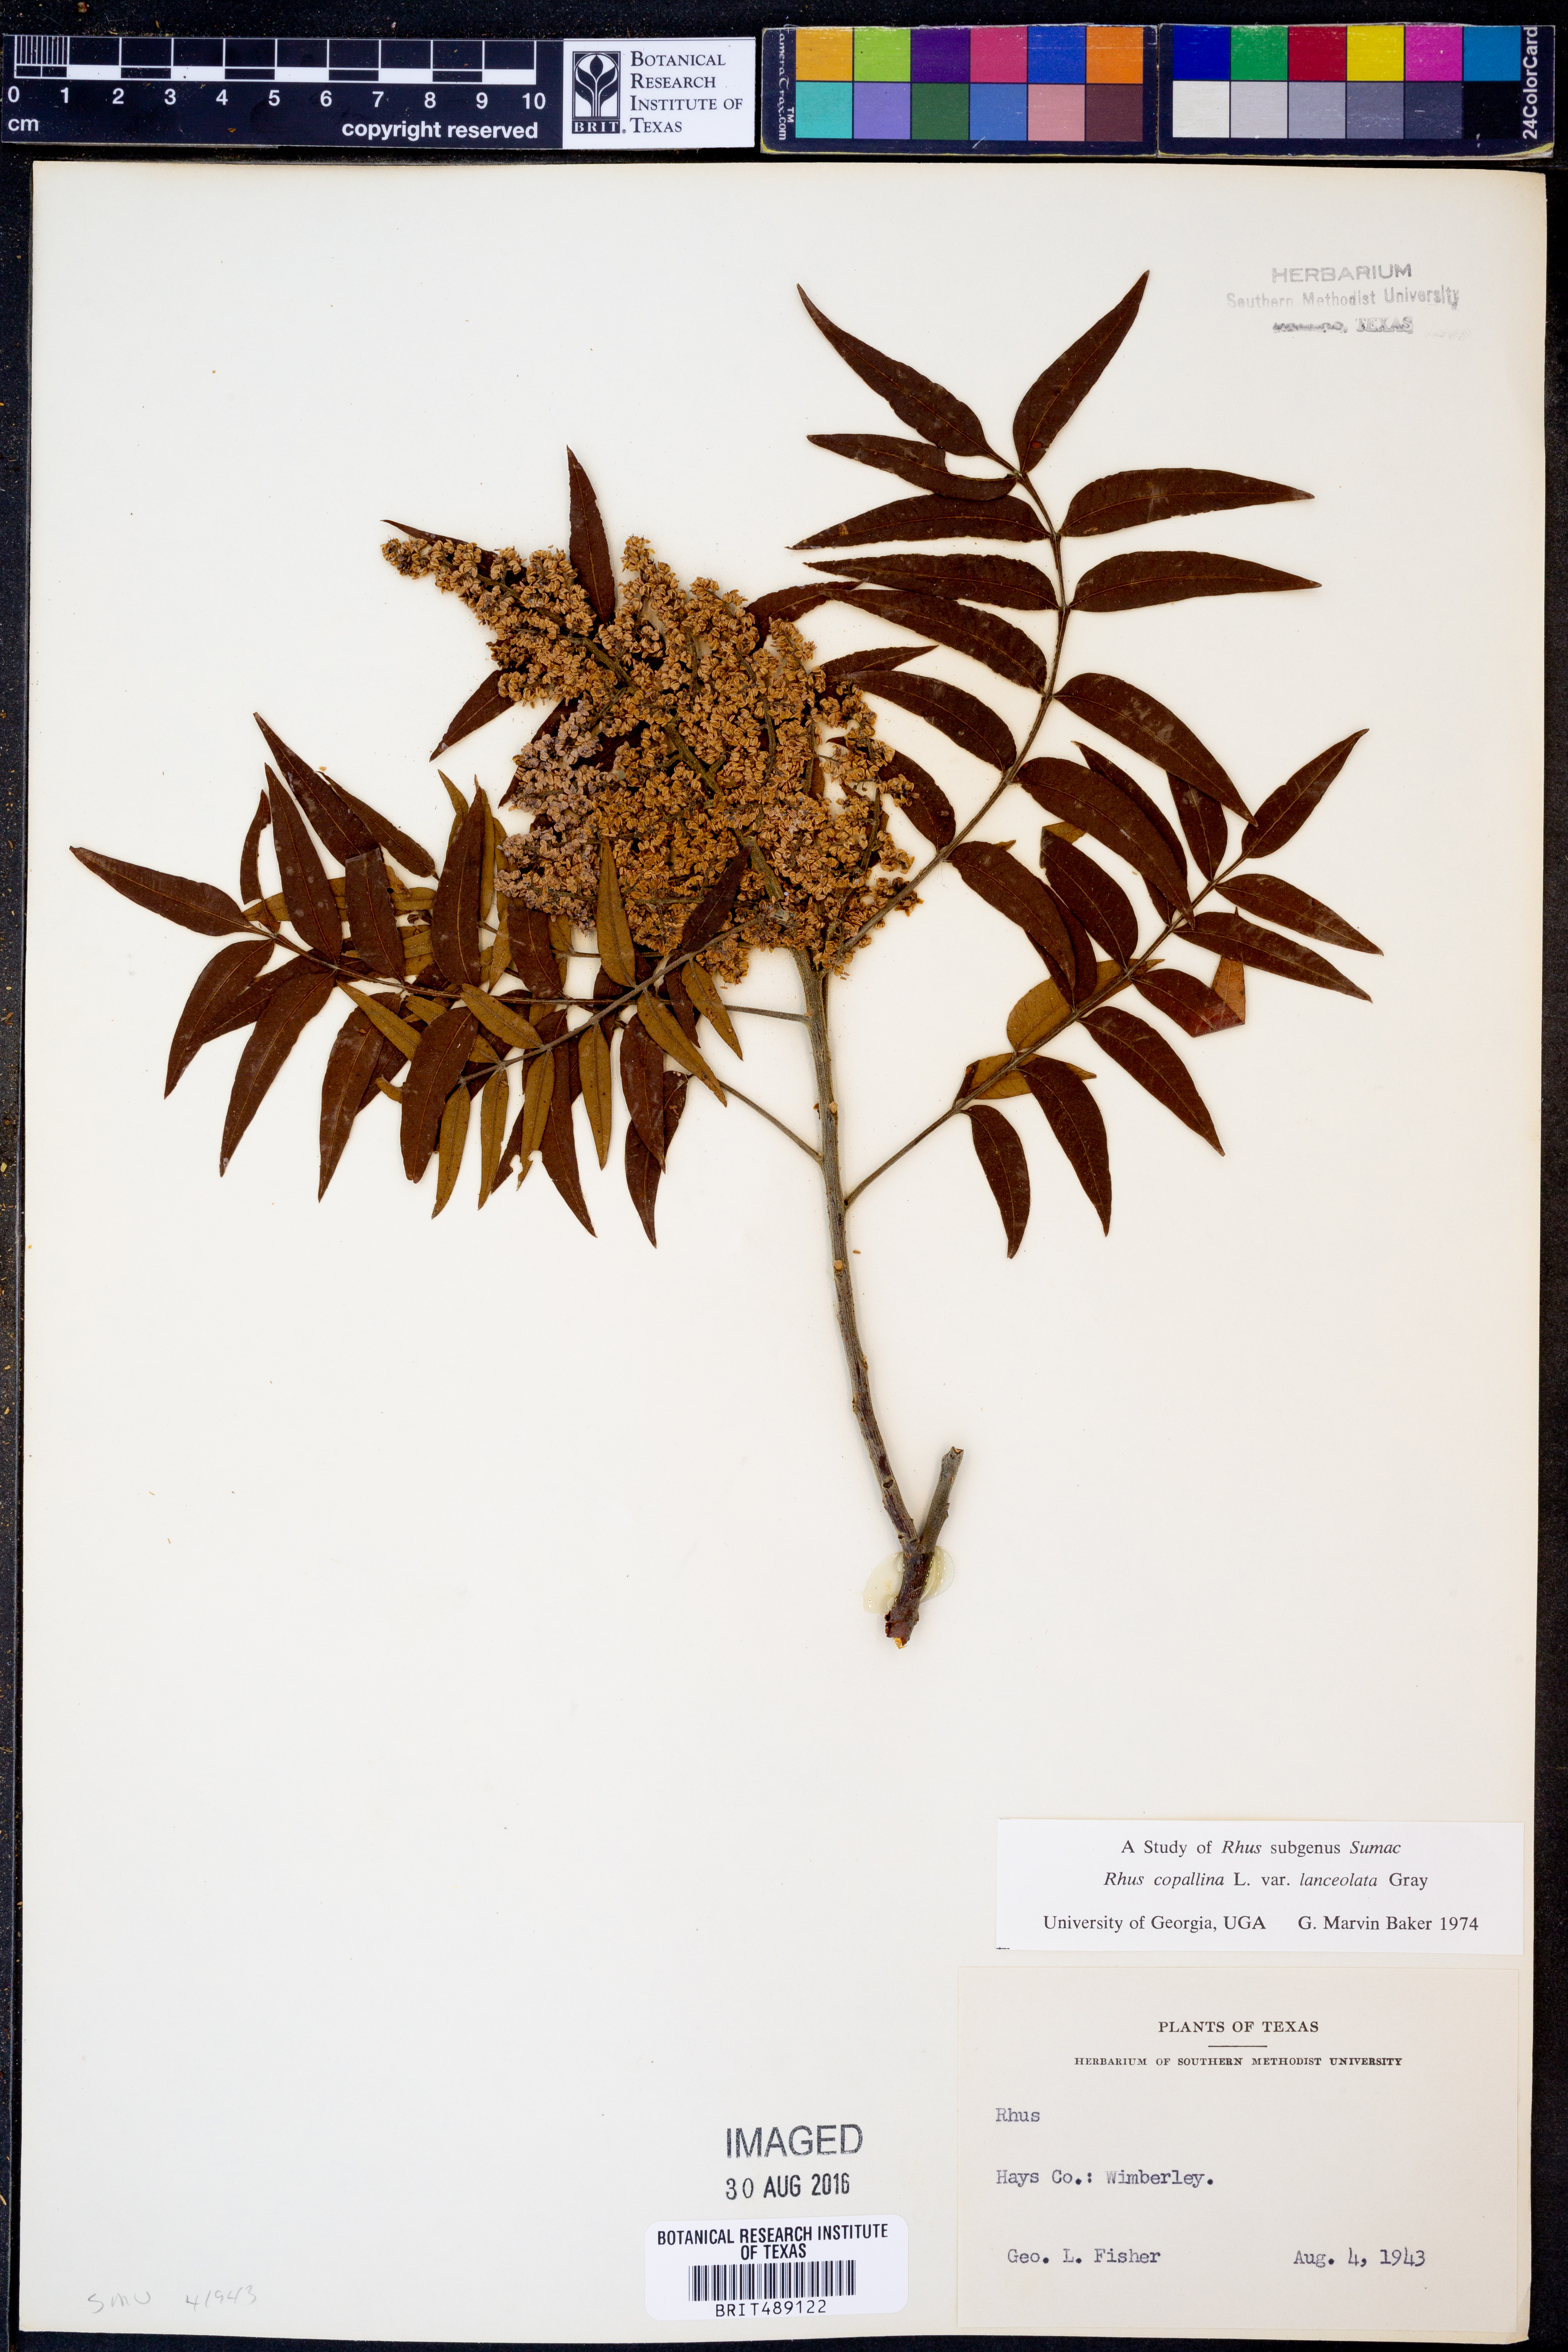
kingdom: Plantae
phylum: Tracheophyta
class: Magnoliopsida
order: Sapindales
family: Anacardiaceae
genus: Rhus
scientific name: Rhus lanceolata
